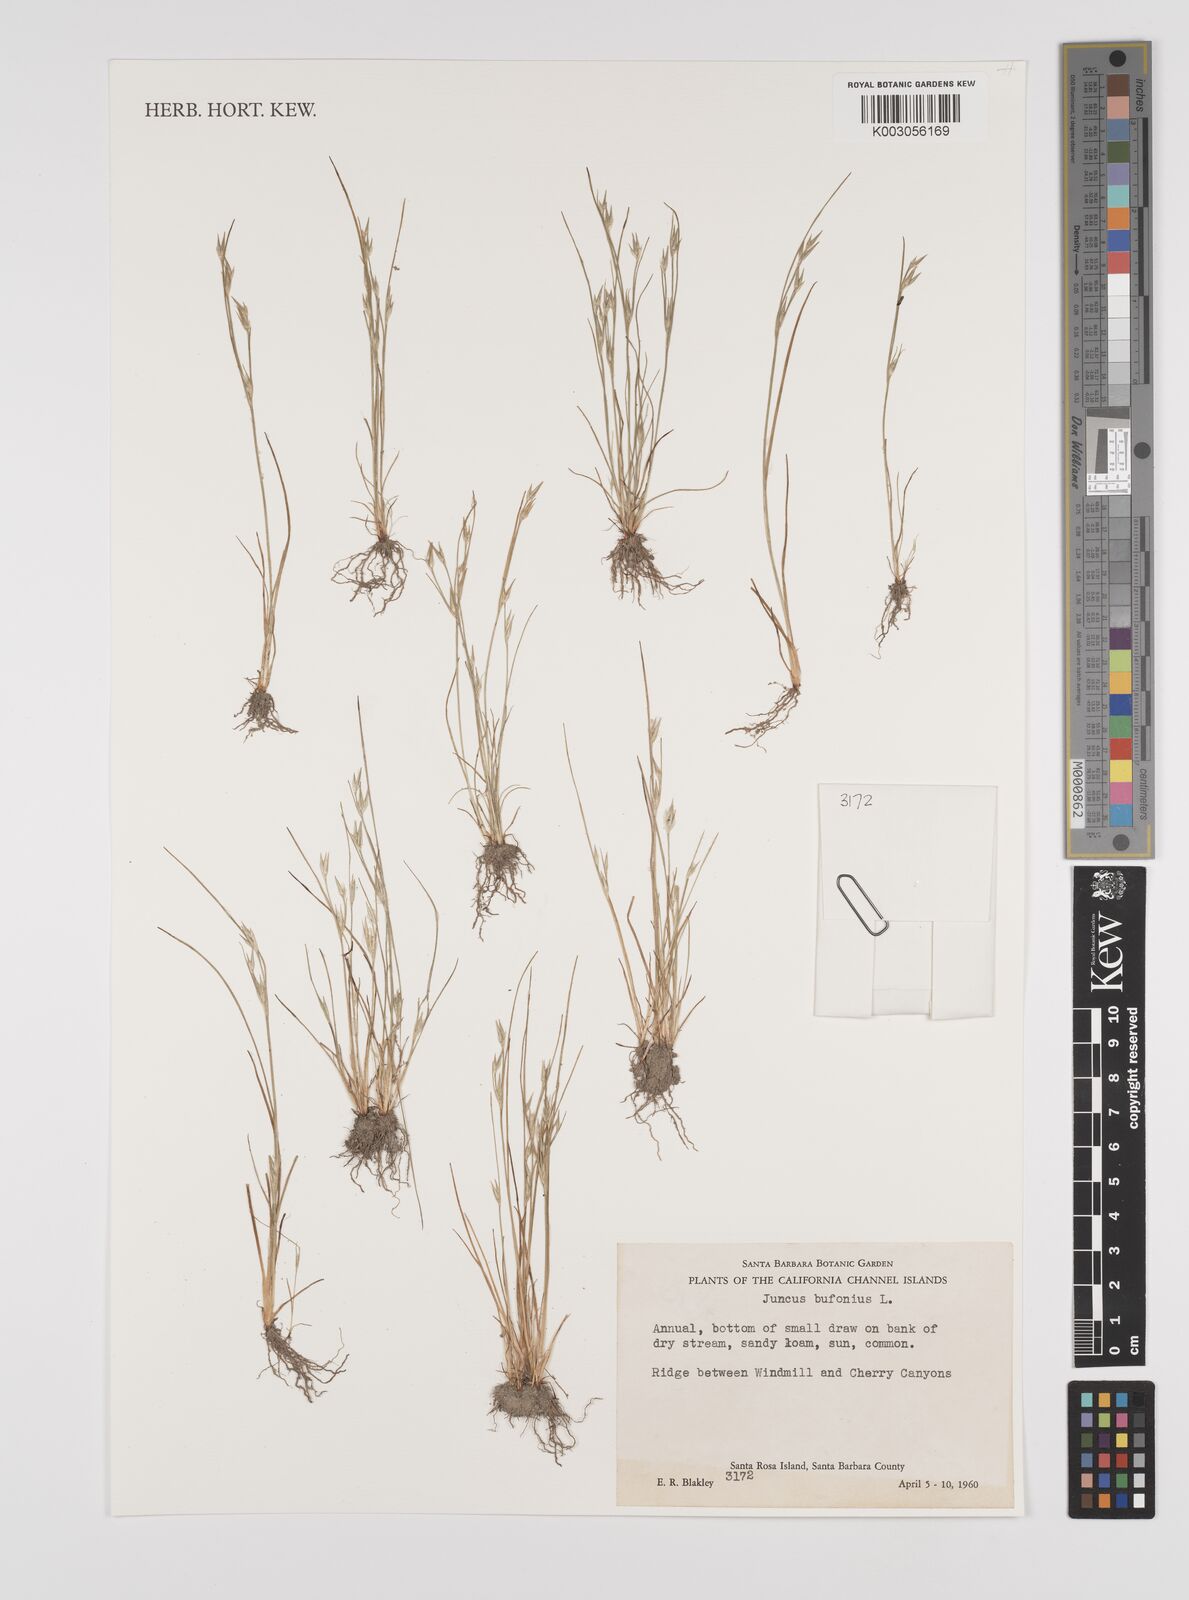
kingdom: Plantae
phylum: Tracheophyta
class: Liliopsida
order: Poales
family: Juncaceae
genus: Juncus
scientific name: Juncus bufonius
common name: Toad rush
